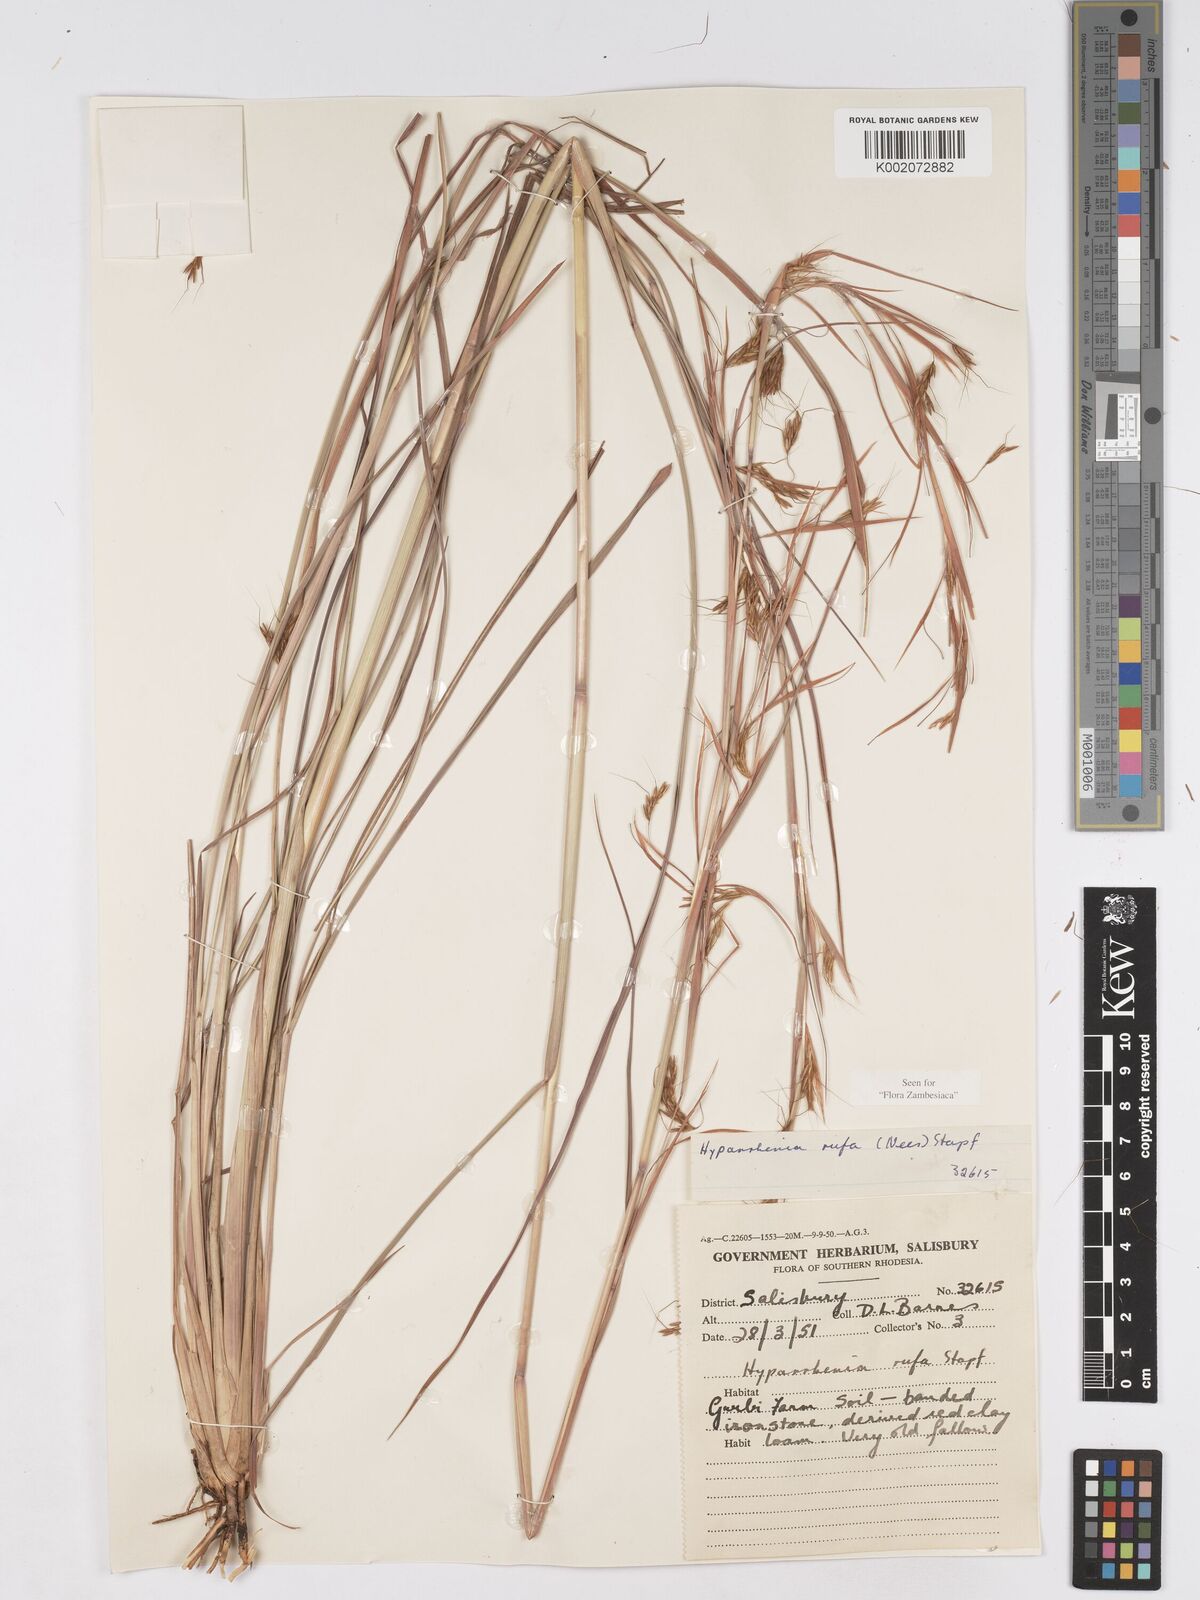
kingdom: Plantae
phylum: Tracheophyta
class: Liliopsida
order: Poales
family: Poaceae
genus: Hyparrhenia
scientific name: Hyparrhenia rufa
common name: Jaraguagrass
